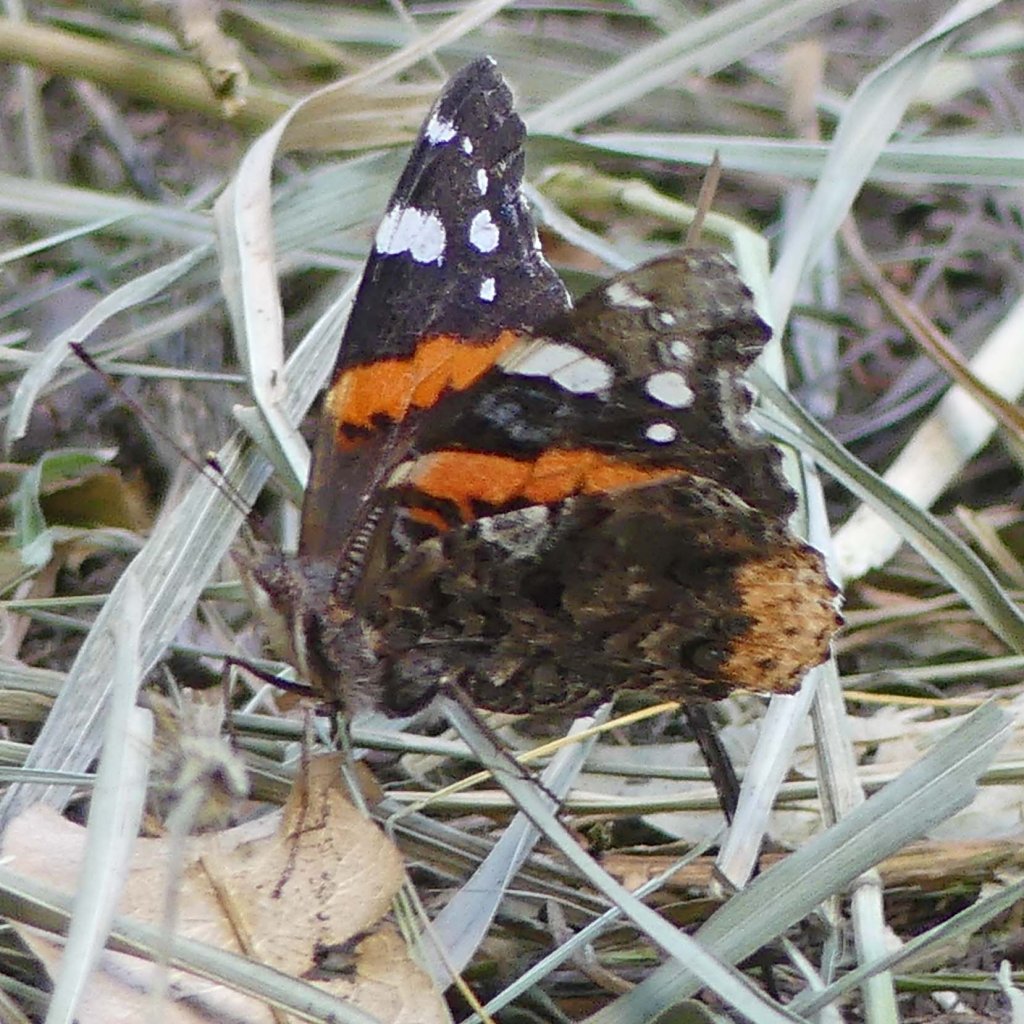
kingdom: Animalia
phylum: Arthropoda
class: Insecta
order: Lepidoptera
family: Nymphalidae
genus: Vanessa
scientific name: Vanessa atalanta
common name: Red Admiral
